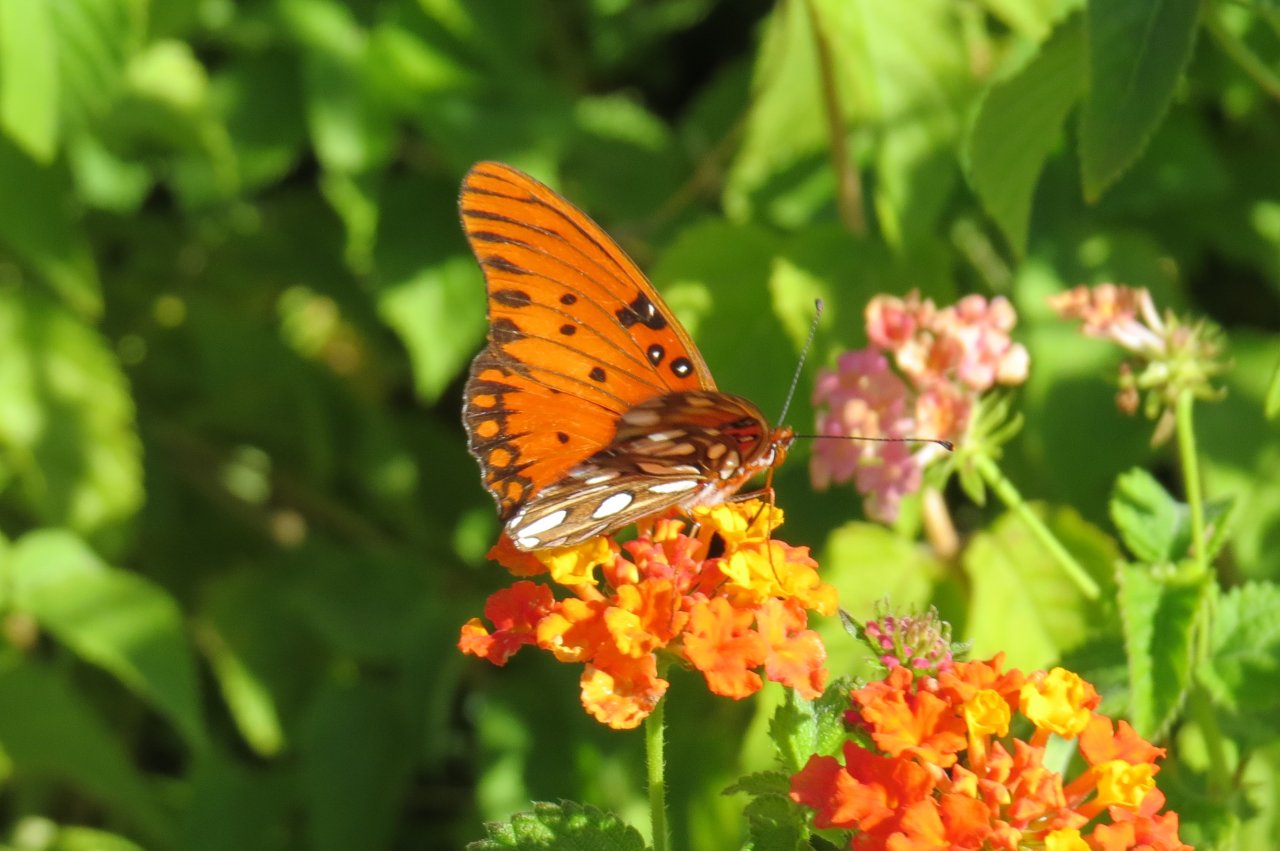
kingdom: Animalia
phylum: Arthropoda
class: Insecta
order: Lepidoptera
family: Nymphalidae
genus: Dione
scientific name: Dione vanillae
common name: Gulf Fritillary
